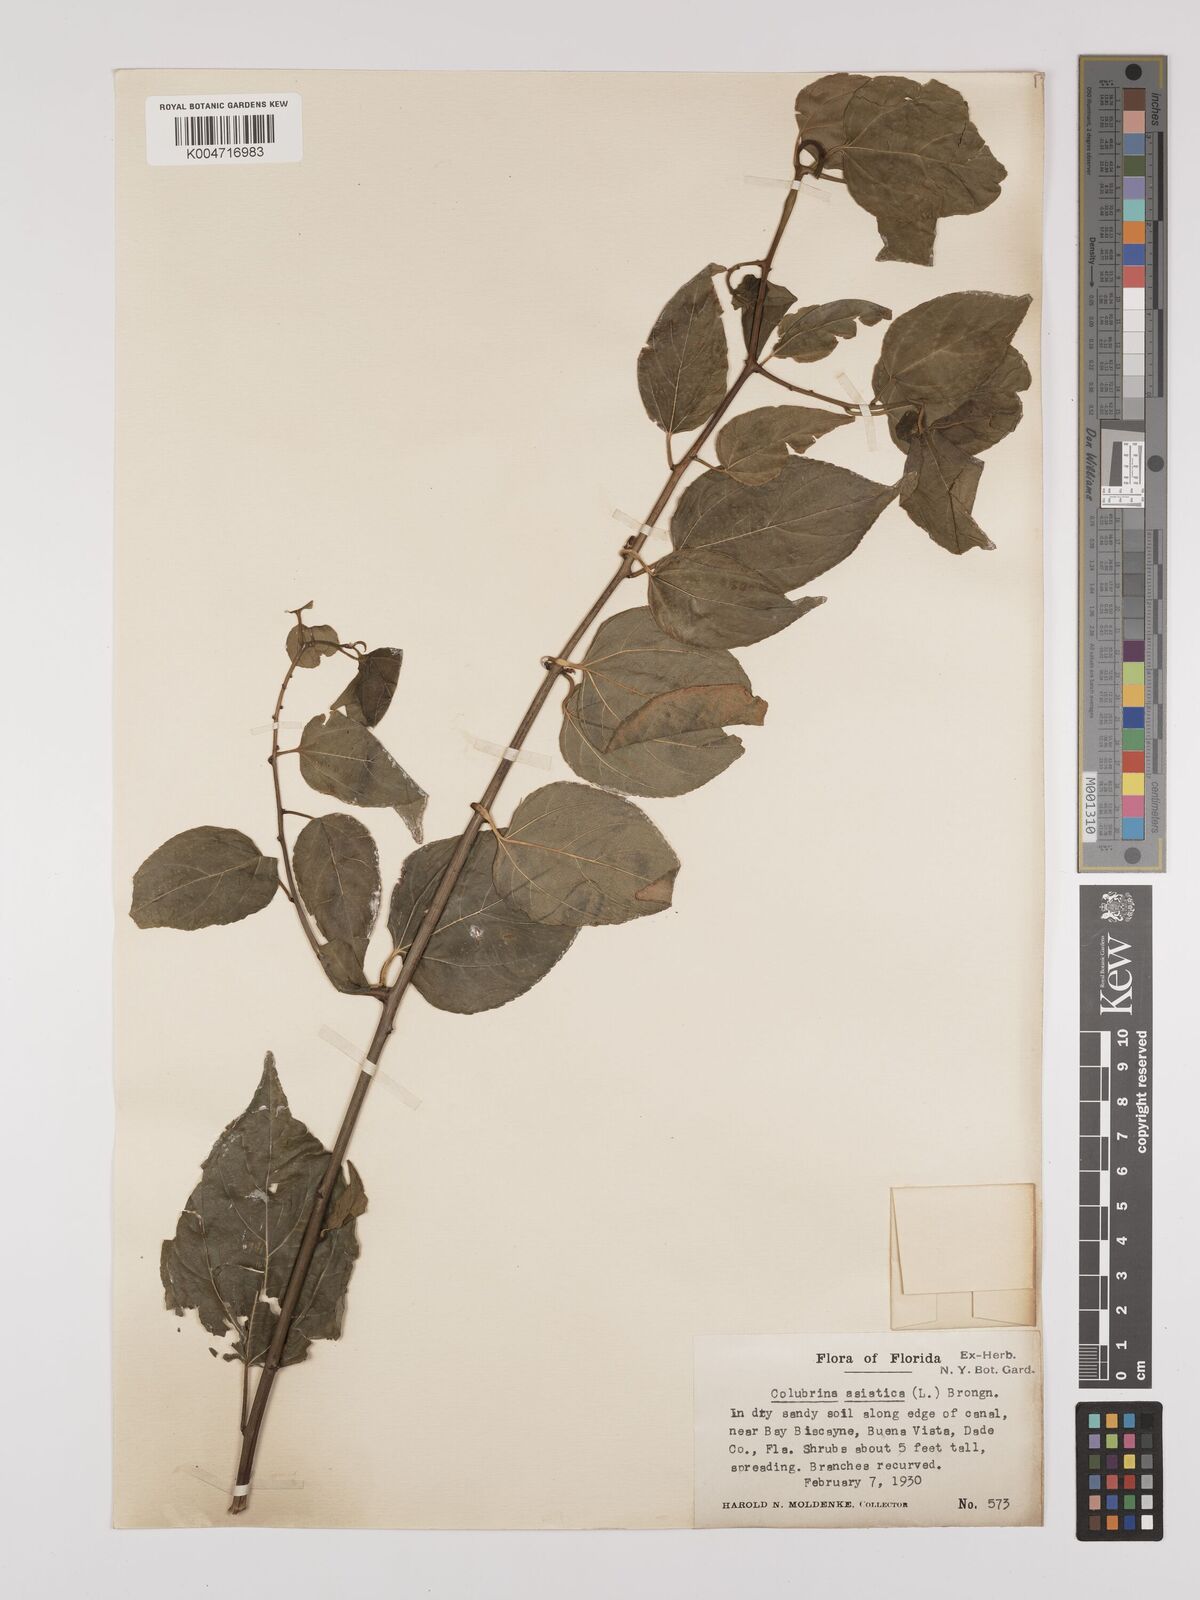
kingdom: Plantae
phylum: Tracheophyta
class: Magnoliopsida
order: Rosales
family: Rhamnaceae
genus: Colubrina
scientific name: Colubrina asiatica
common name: Asian nakedwood
